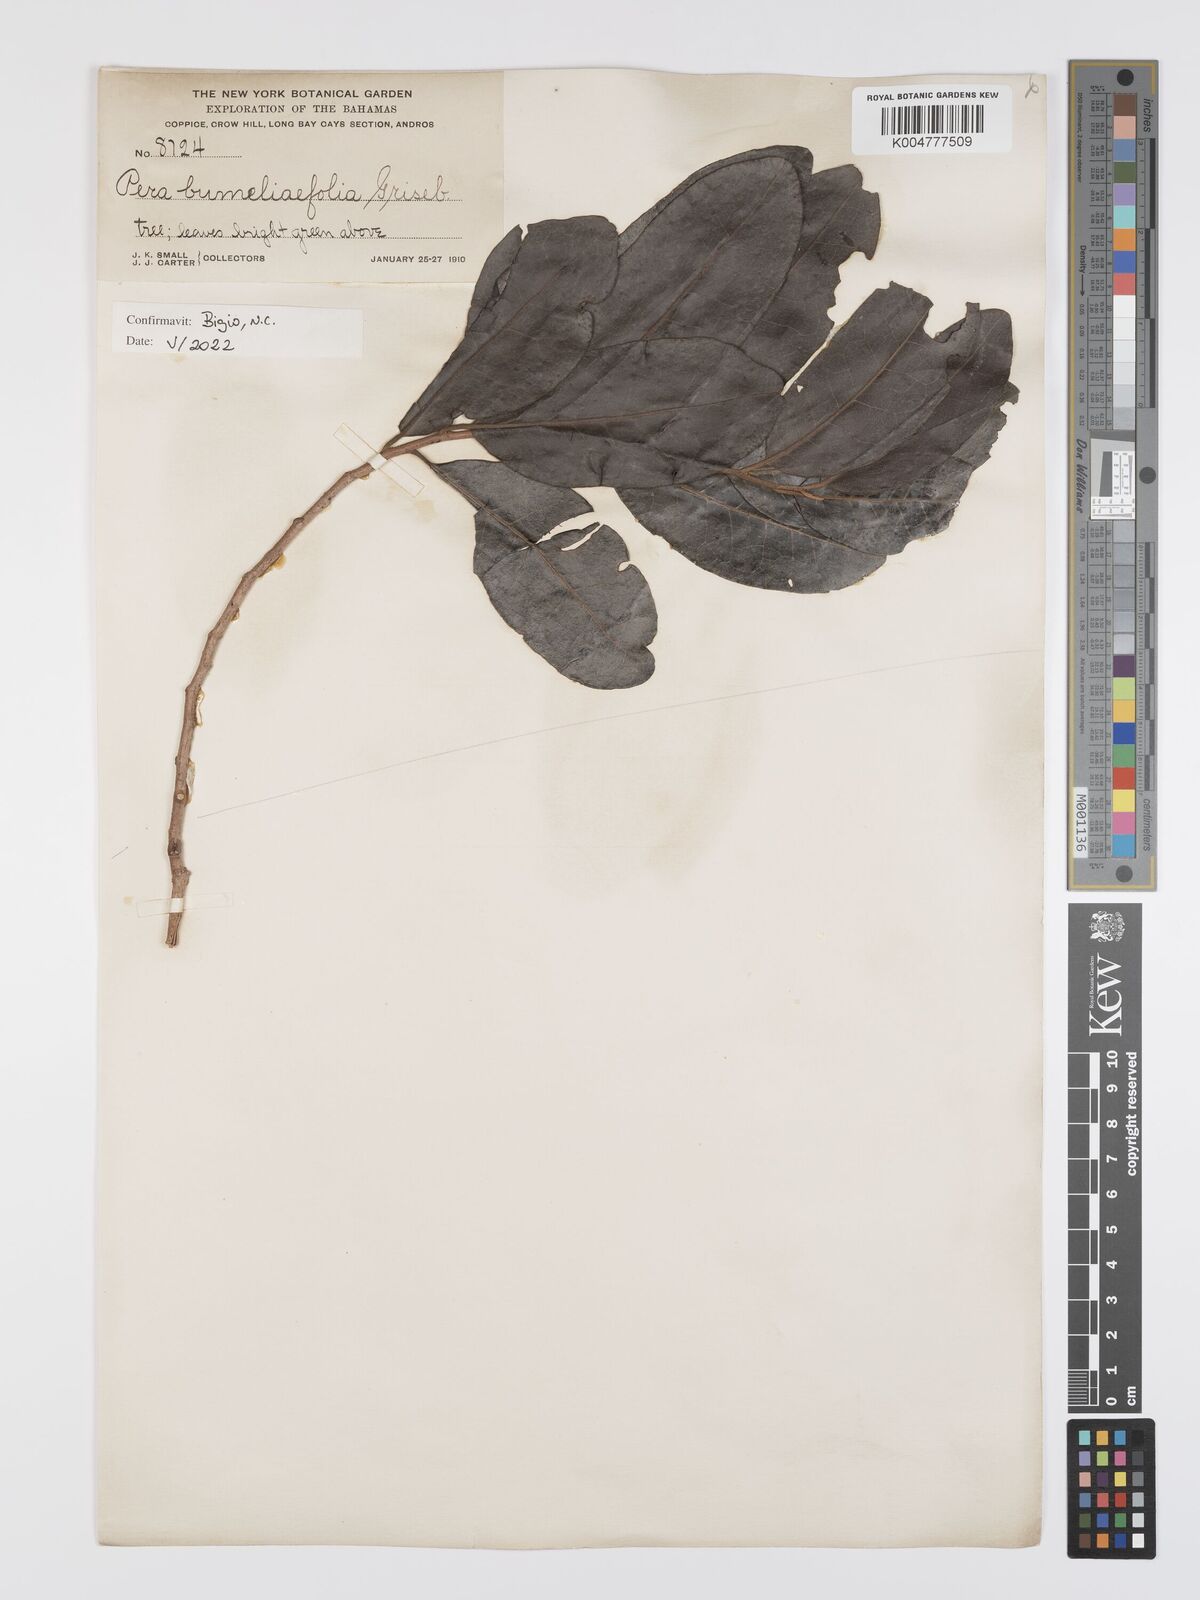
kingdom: Plantae
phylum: Tracheophyta
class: Magnoliopsida
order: Malpighiales
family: Peraceae
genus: Pera
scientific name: Pera
